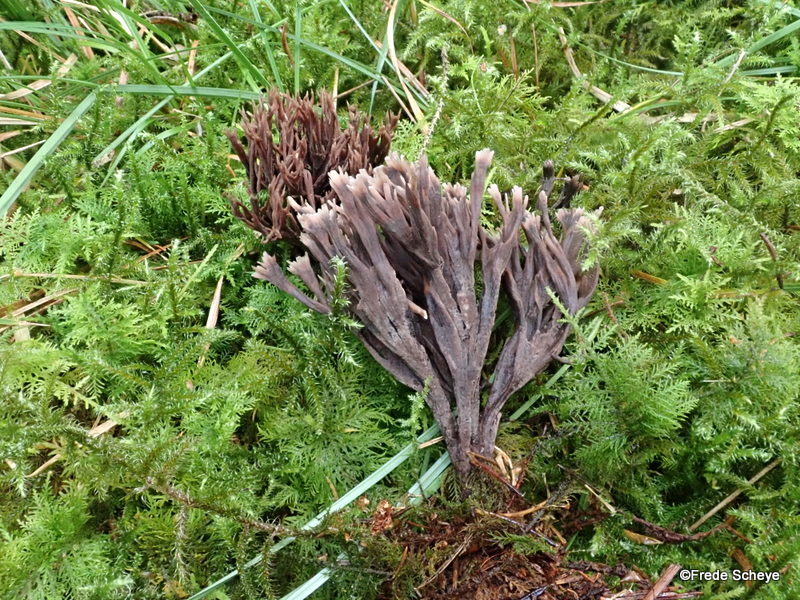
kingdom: Fungi
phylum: Basidiomycota
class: Agaricomycetes
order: Thelephorales
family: Thelephoraceae
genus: Thelephora
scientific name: Thelephora palmata
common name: grenet frynsesvamp
